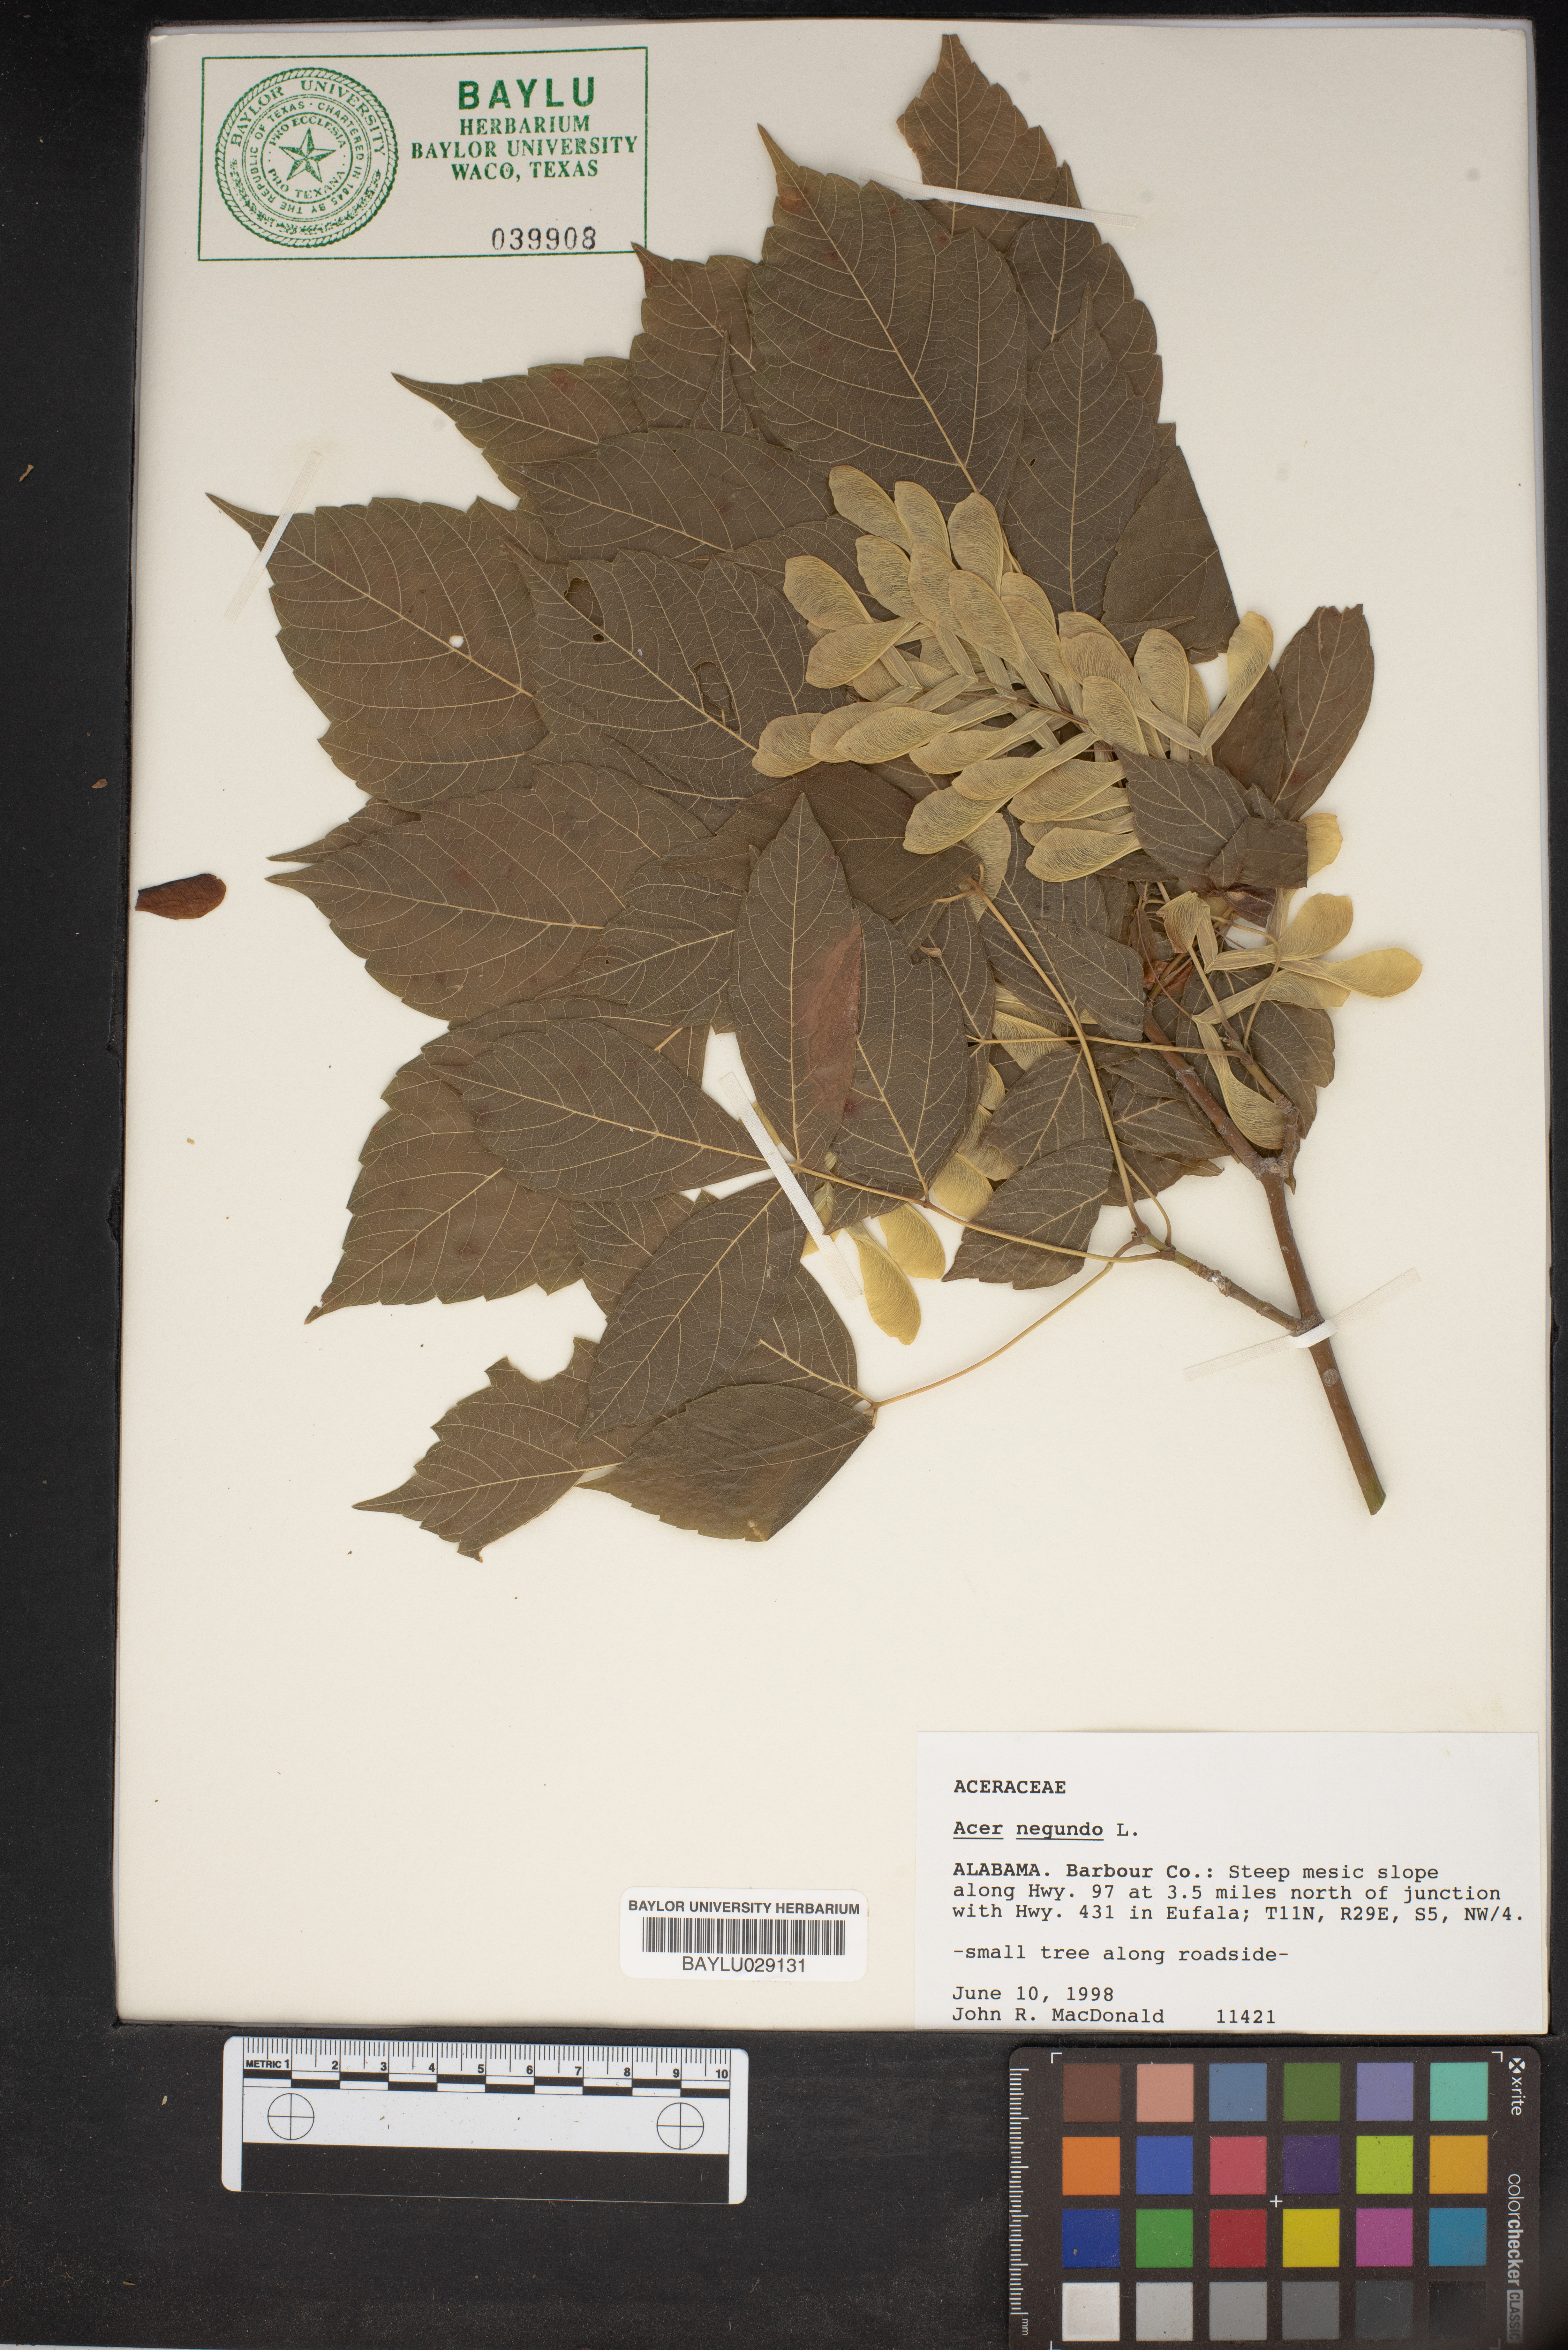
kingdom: Plantae
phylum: Tracheophyta
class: Magnoliopsida
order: Sapindales
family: Sapindaceae
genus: Acer
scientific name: Acer negundo
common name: Ashleaf maple
